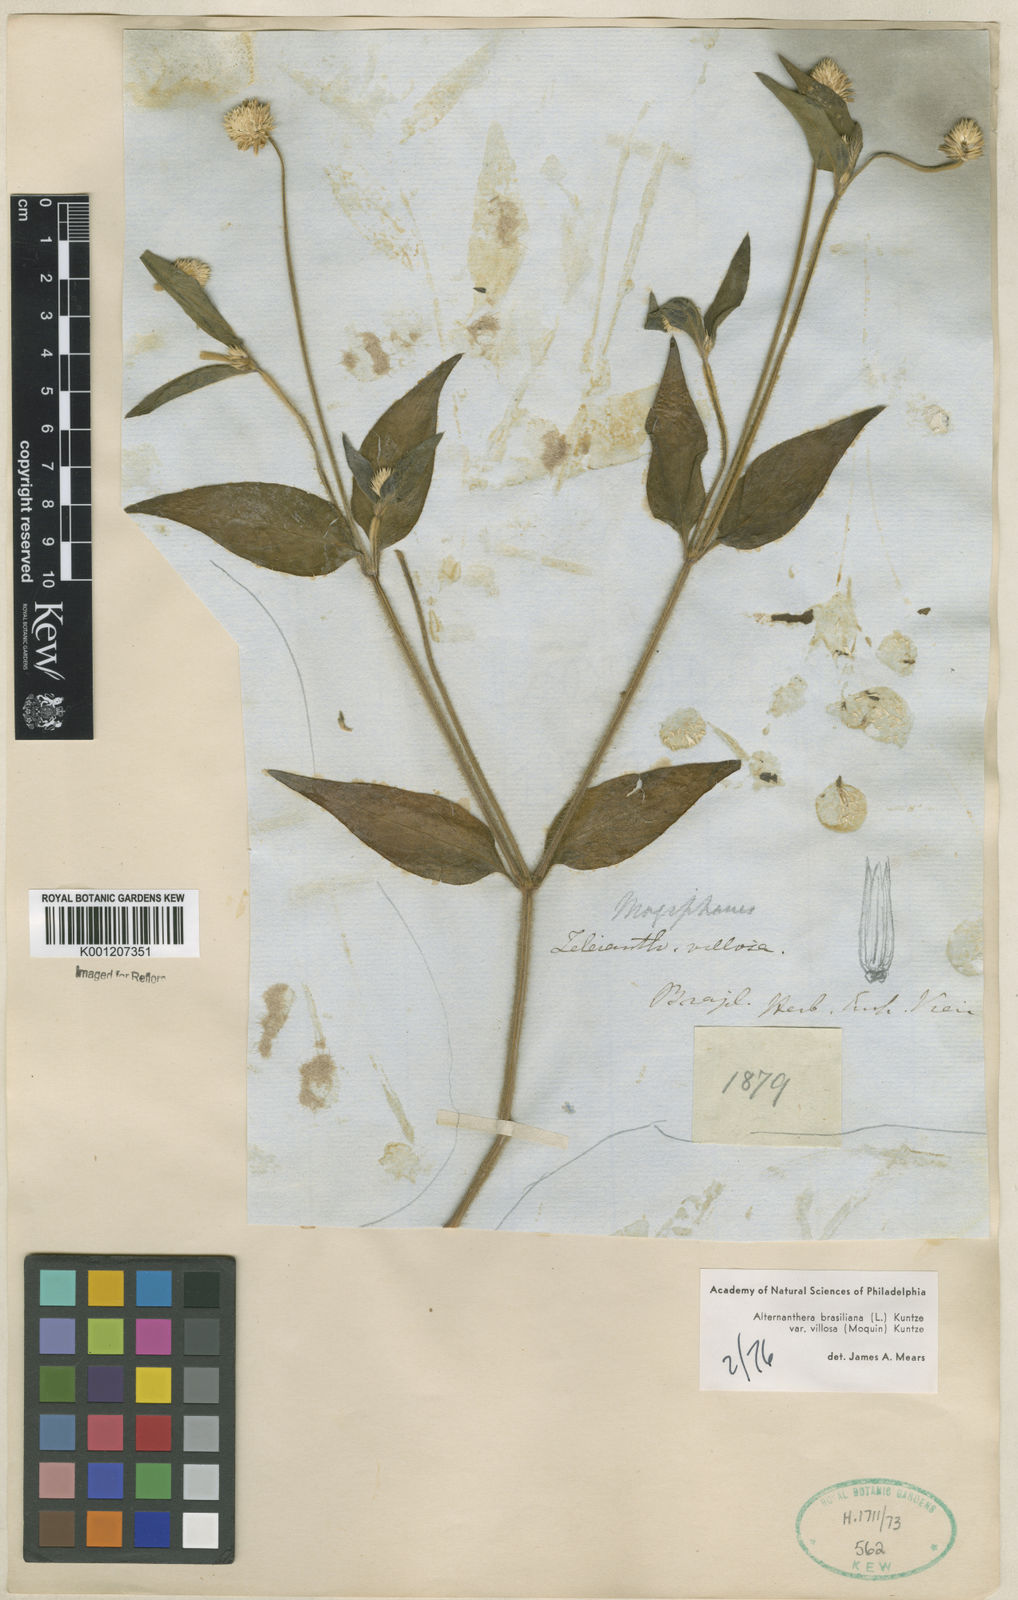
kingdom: Plantae
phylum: Tracheophyta
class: Magnoliopsida
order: Caryophyllales
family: Amaranthaceae
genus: Alternanthera
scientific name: Alternanthera ramosissima
